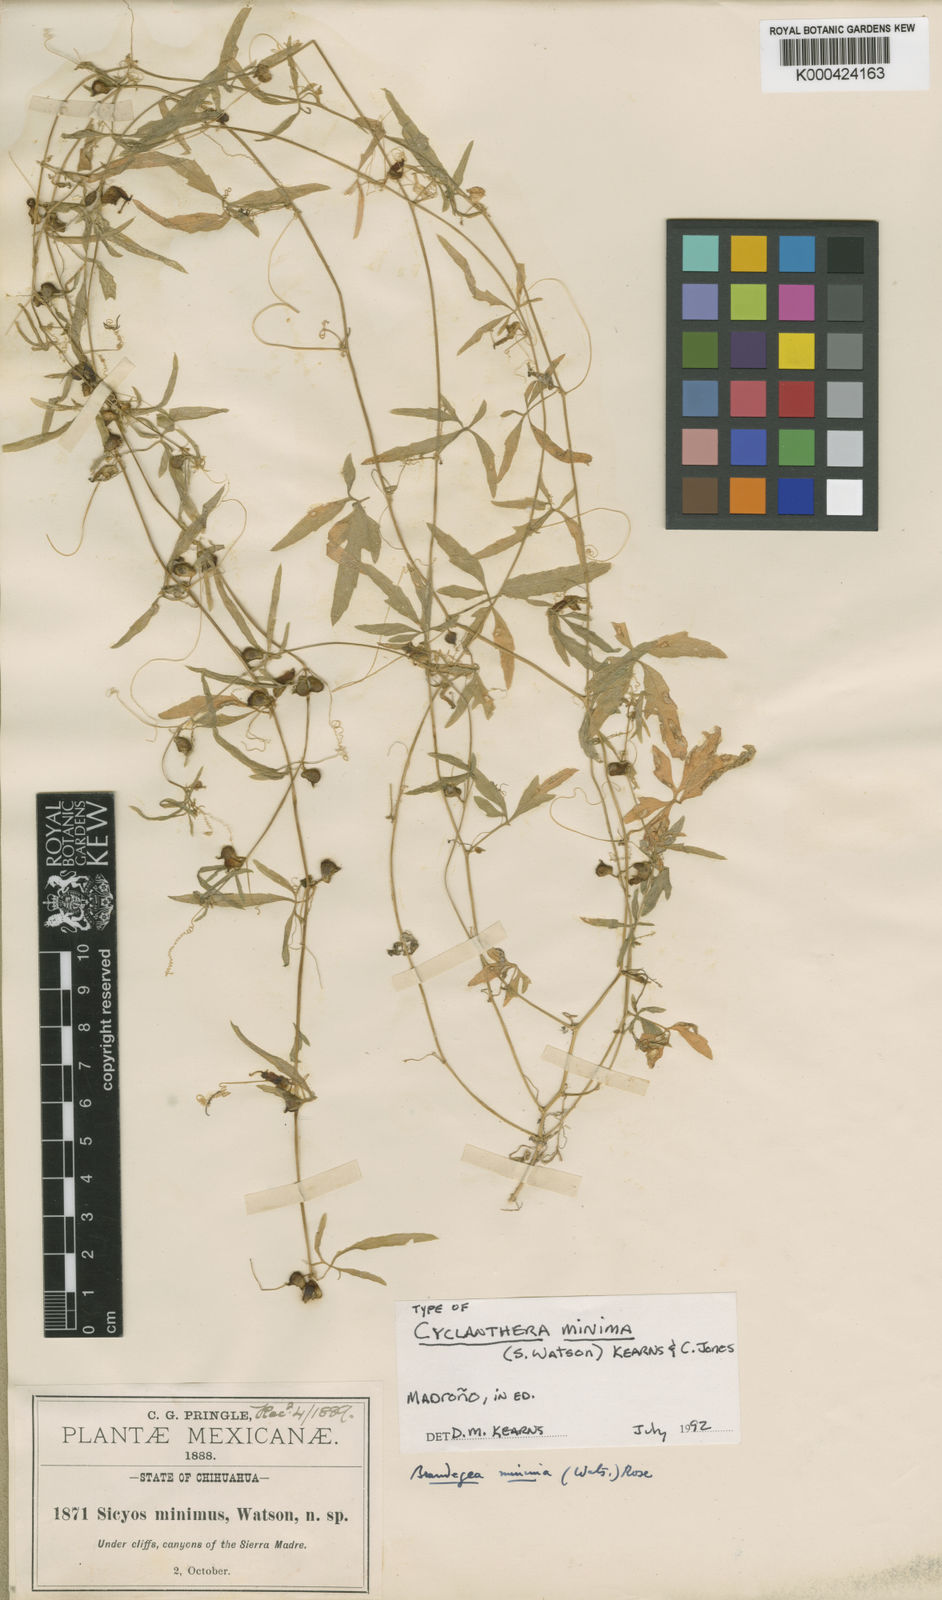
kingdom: Plantae
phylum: Tracheophyta
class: Magnoliopsida
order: Cucurbitales
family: Cucurbitaceae
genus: Cyclanthera
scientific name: Cyclanthera minima
